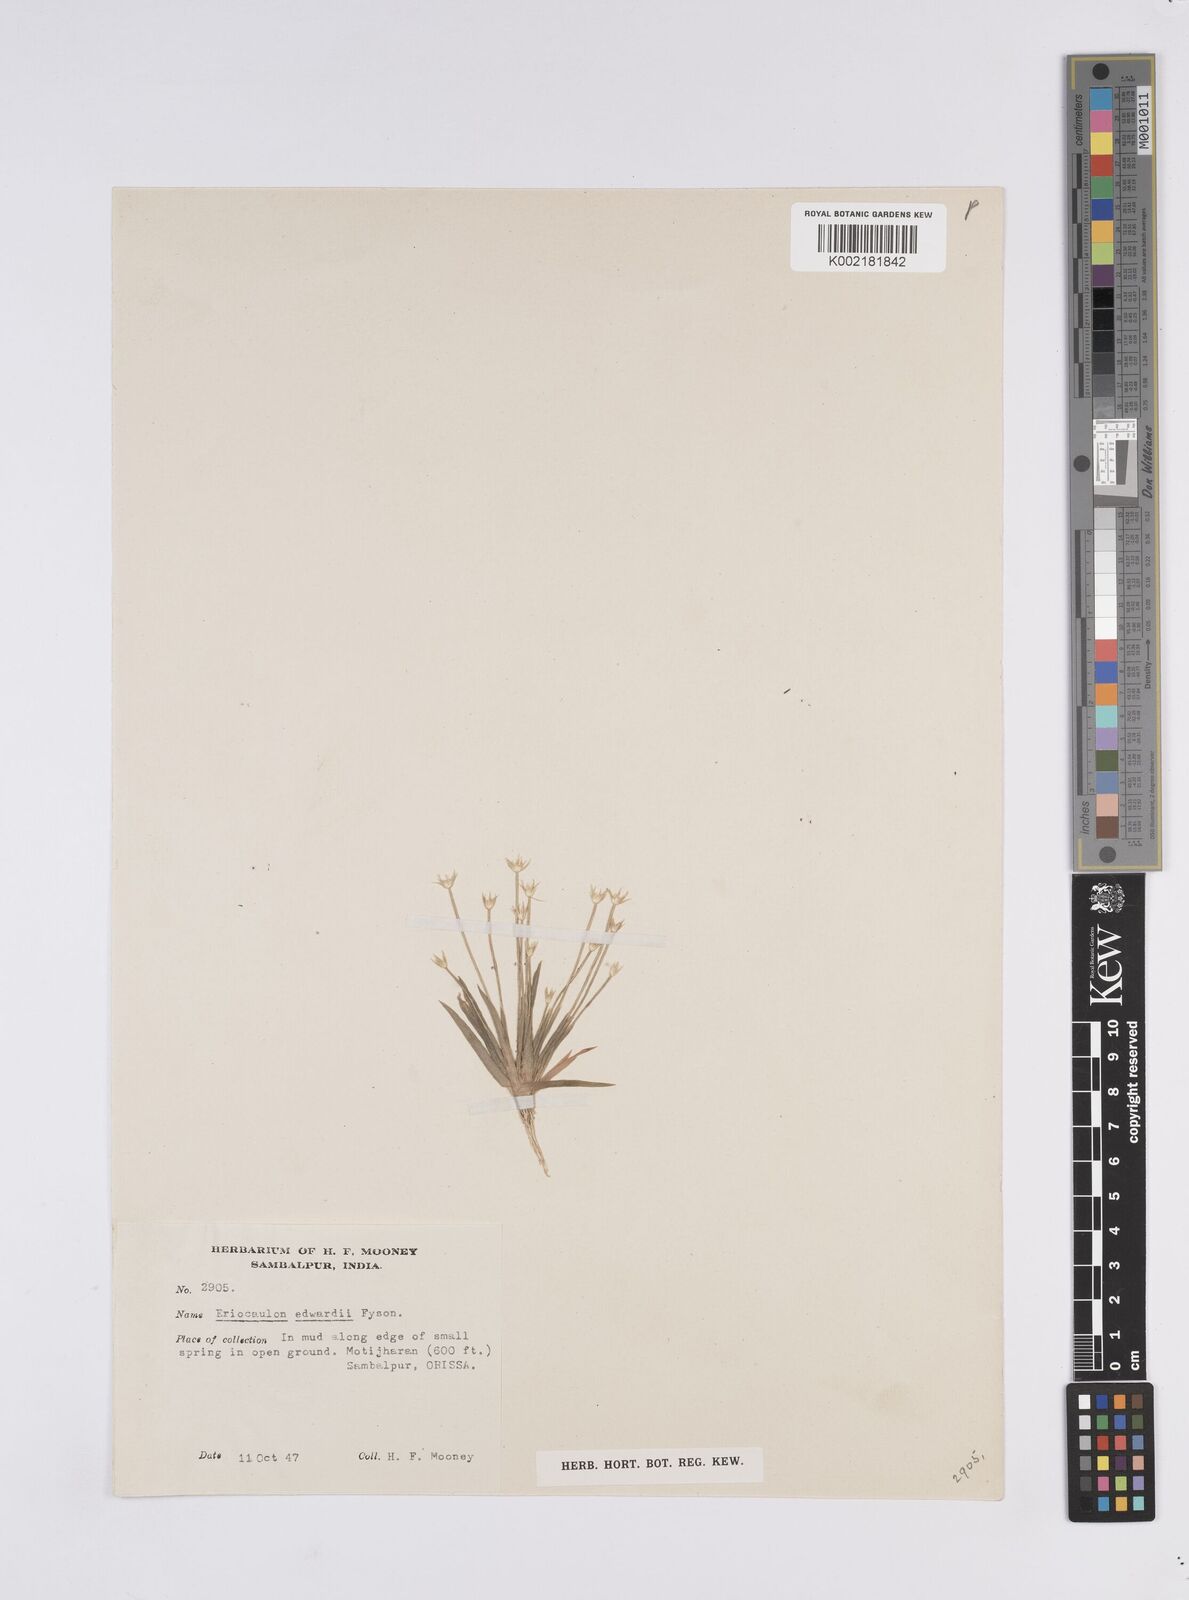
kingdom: Plantae
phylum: Tracheophyta
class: Liliopsida
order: Poales
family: Eriocaulaceae
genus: Eriocaulon
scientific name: Eriocaulon edwardii
